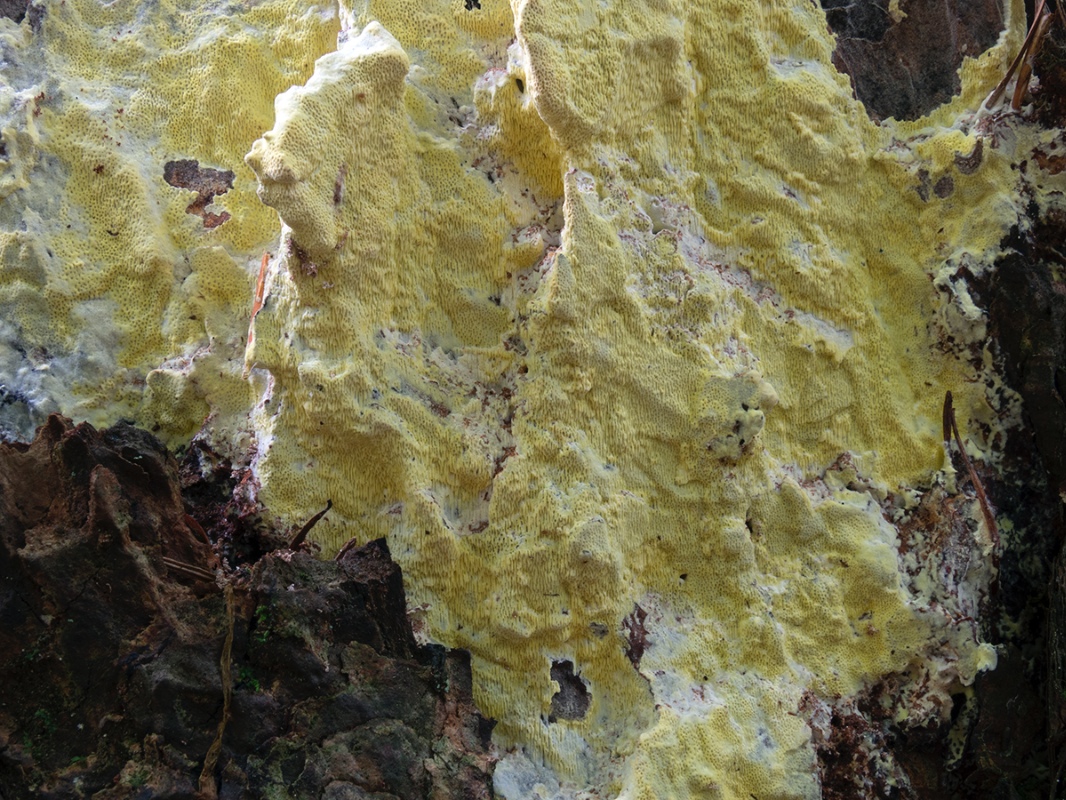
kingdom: Fungi
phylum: Basidiomycota
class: Agaricomycetes
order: Polyporales
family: Fomitopsidaceae
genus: Daedalea
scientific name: Daedalea xantha
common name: gul sejporesvamp
